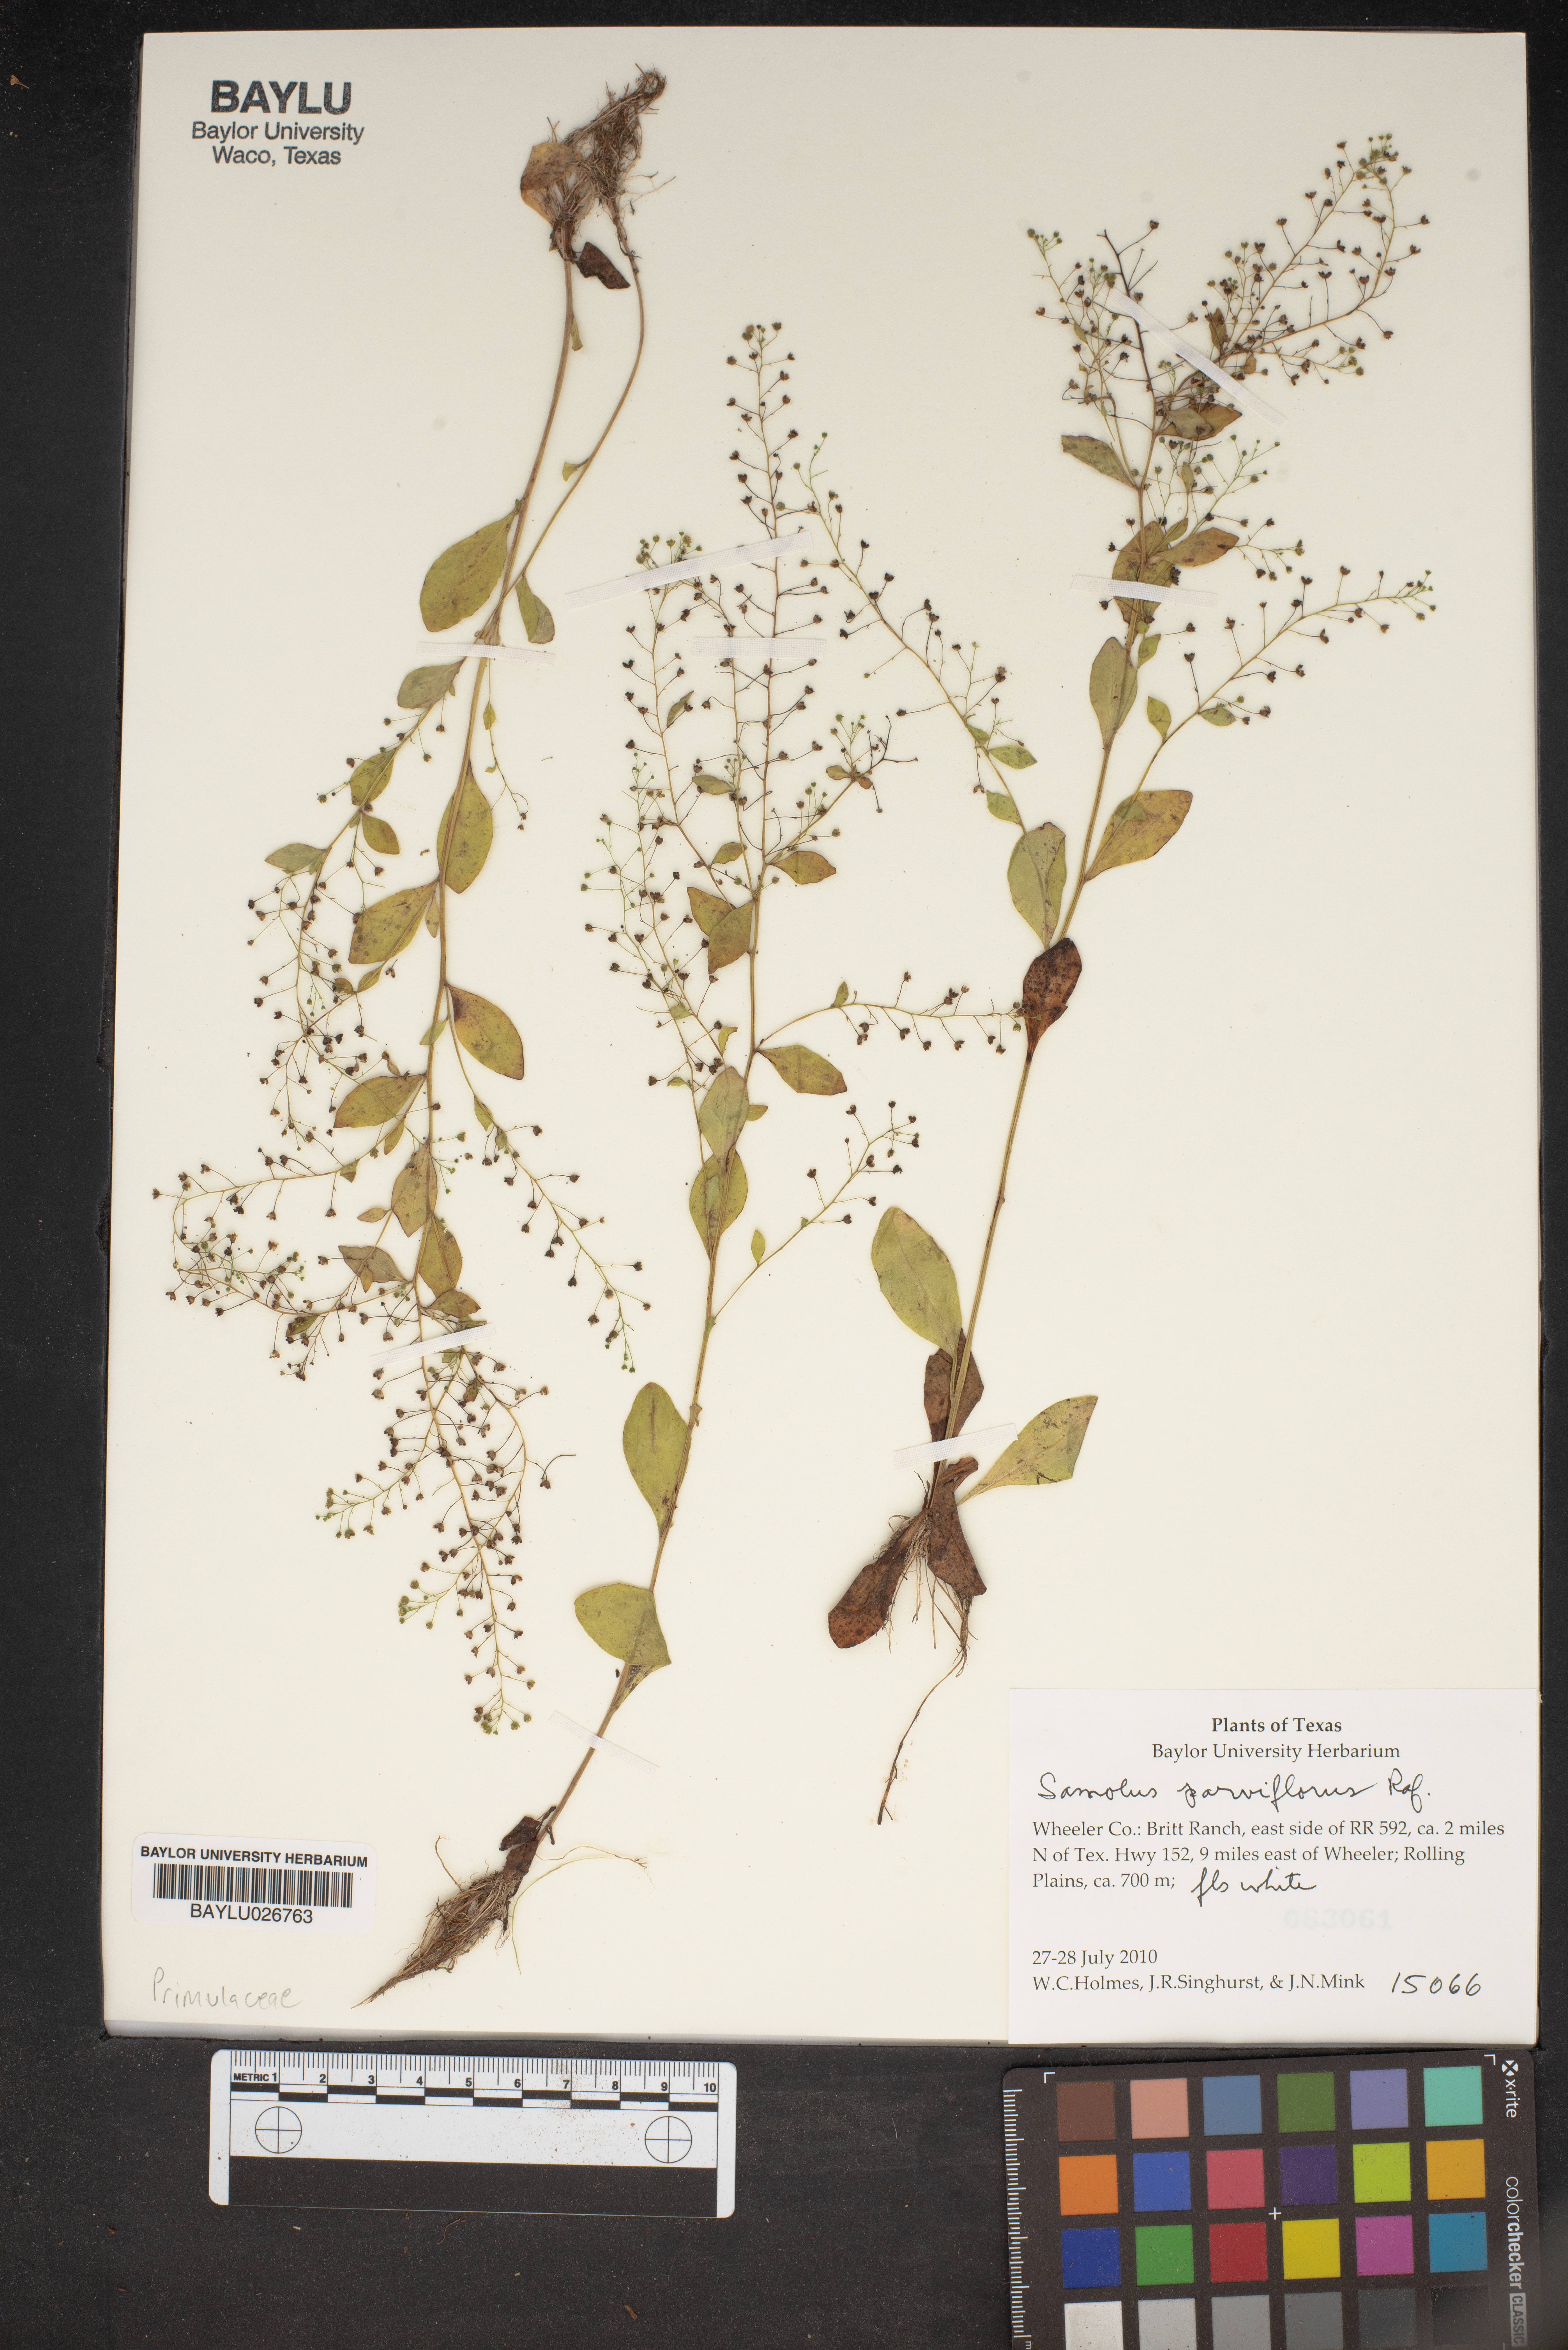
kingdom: Plantae
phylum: Tracheophyta
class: Magnoliopsida
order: Ericales
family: Primulaceae
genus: Samolus
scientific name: Samolus parviflorus
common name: False water pimpernel
